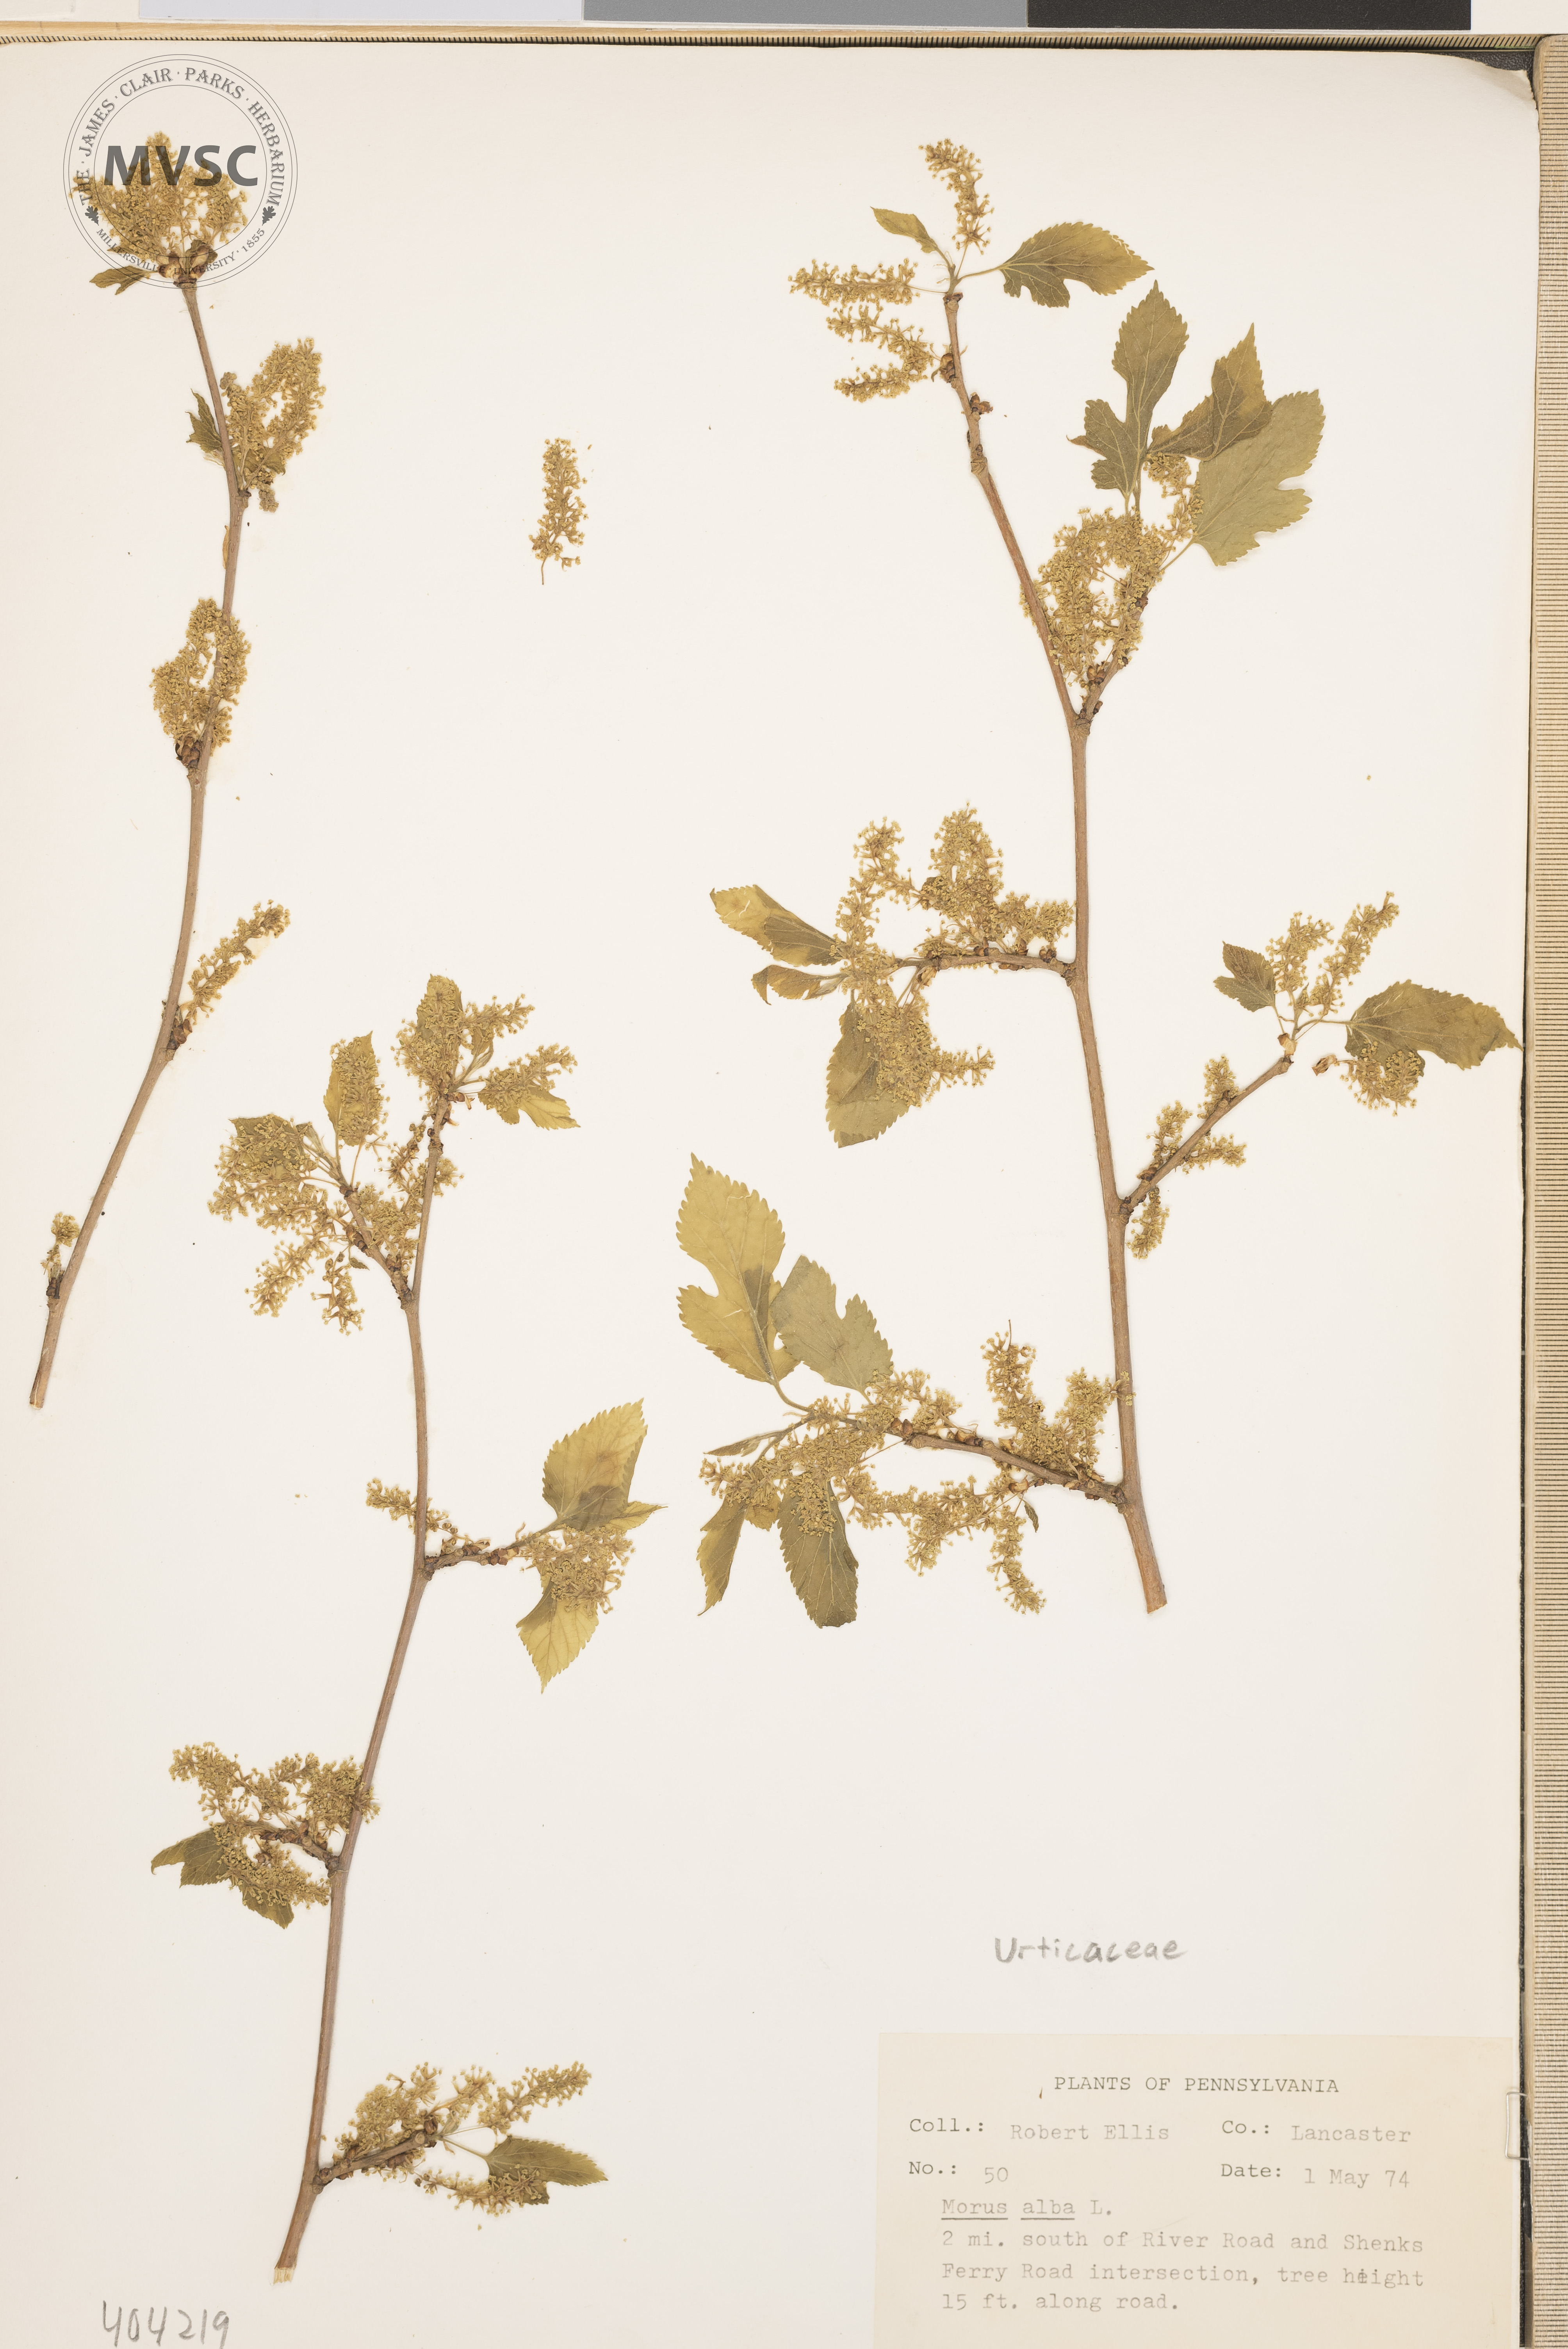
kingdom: Plantae
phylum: Tracheophyta
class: Magnoliopsida
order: Rosales
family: Moraceae
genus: Morus
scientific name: Morus alba
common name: White mulberry
